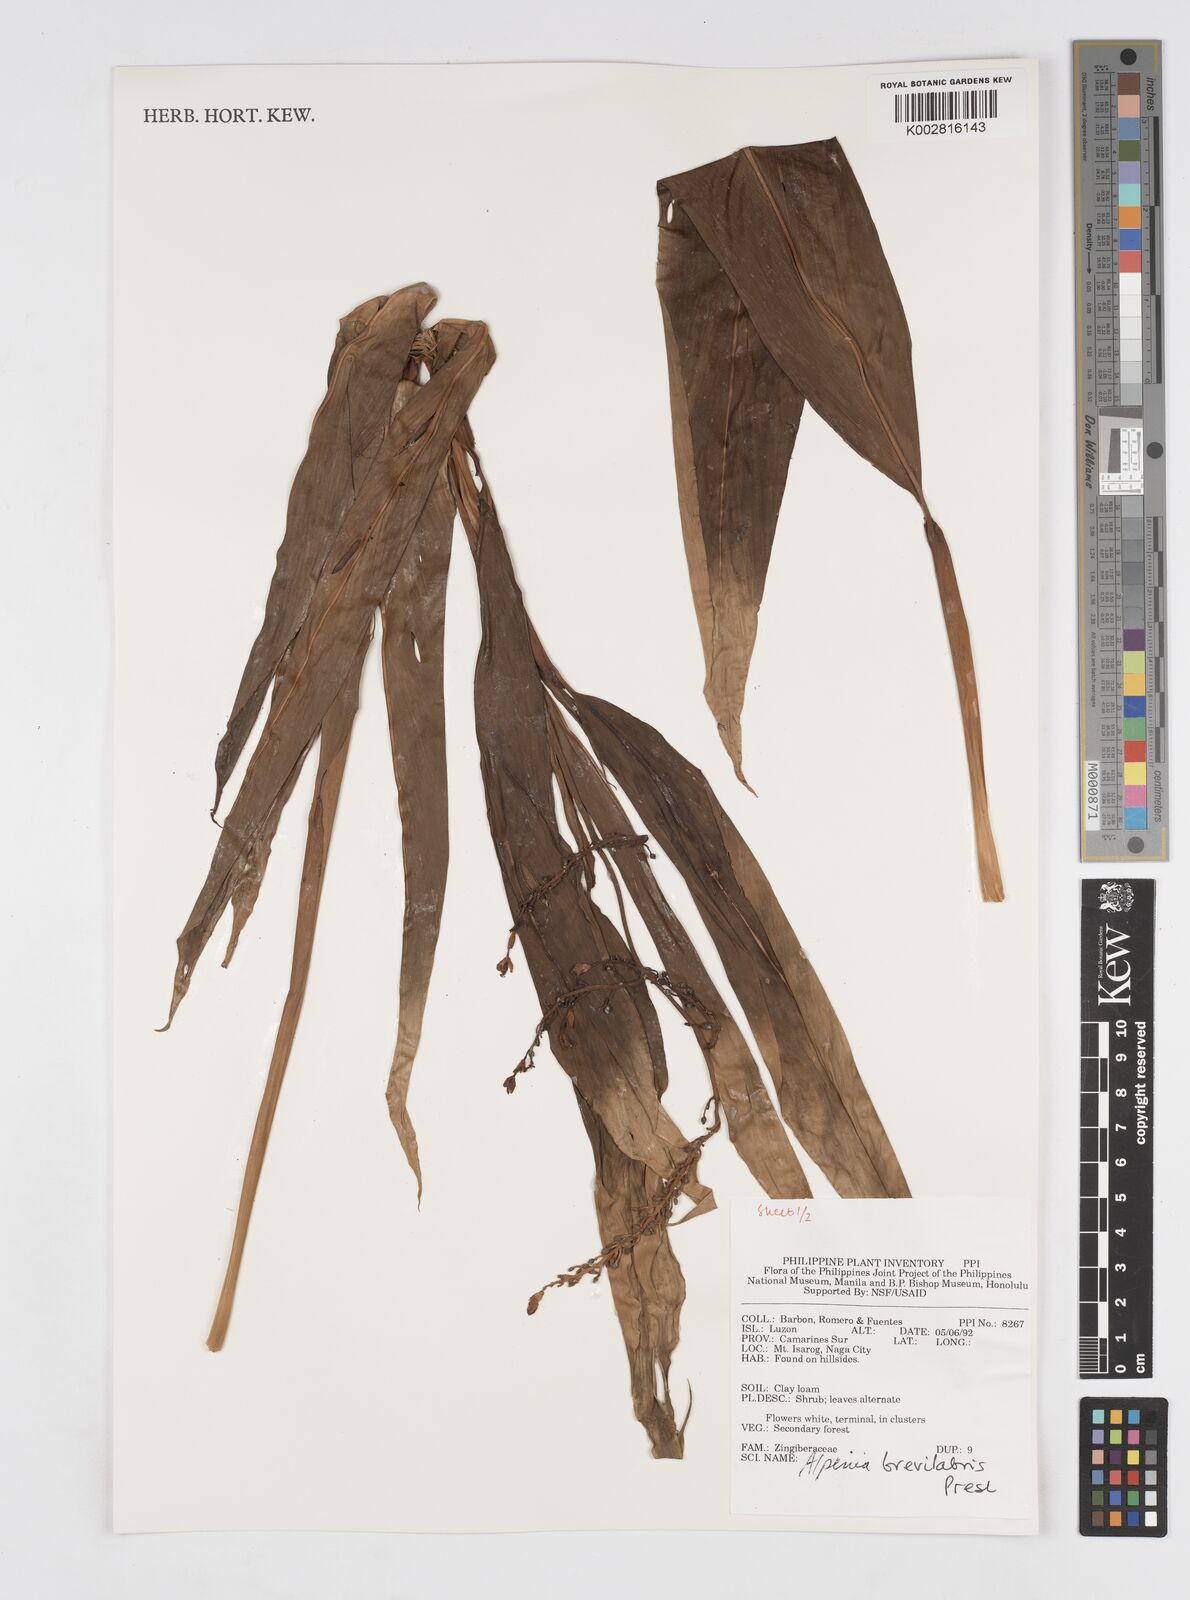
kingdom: Plantae
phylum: Tracheophyta
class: Liliopsida
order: Zingiberales
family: Zingiberaceae
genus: Alpinia
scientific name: Alpinia brevilabris
